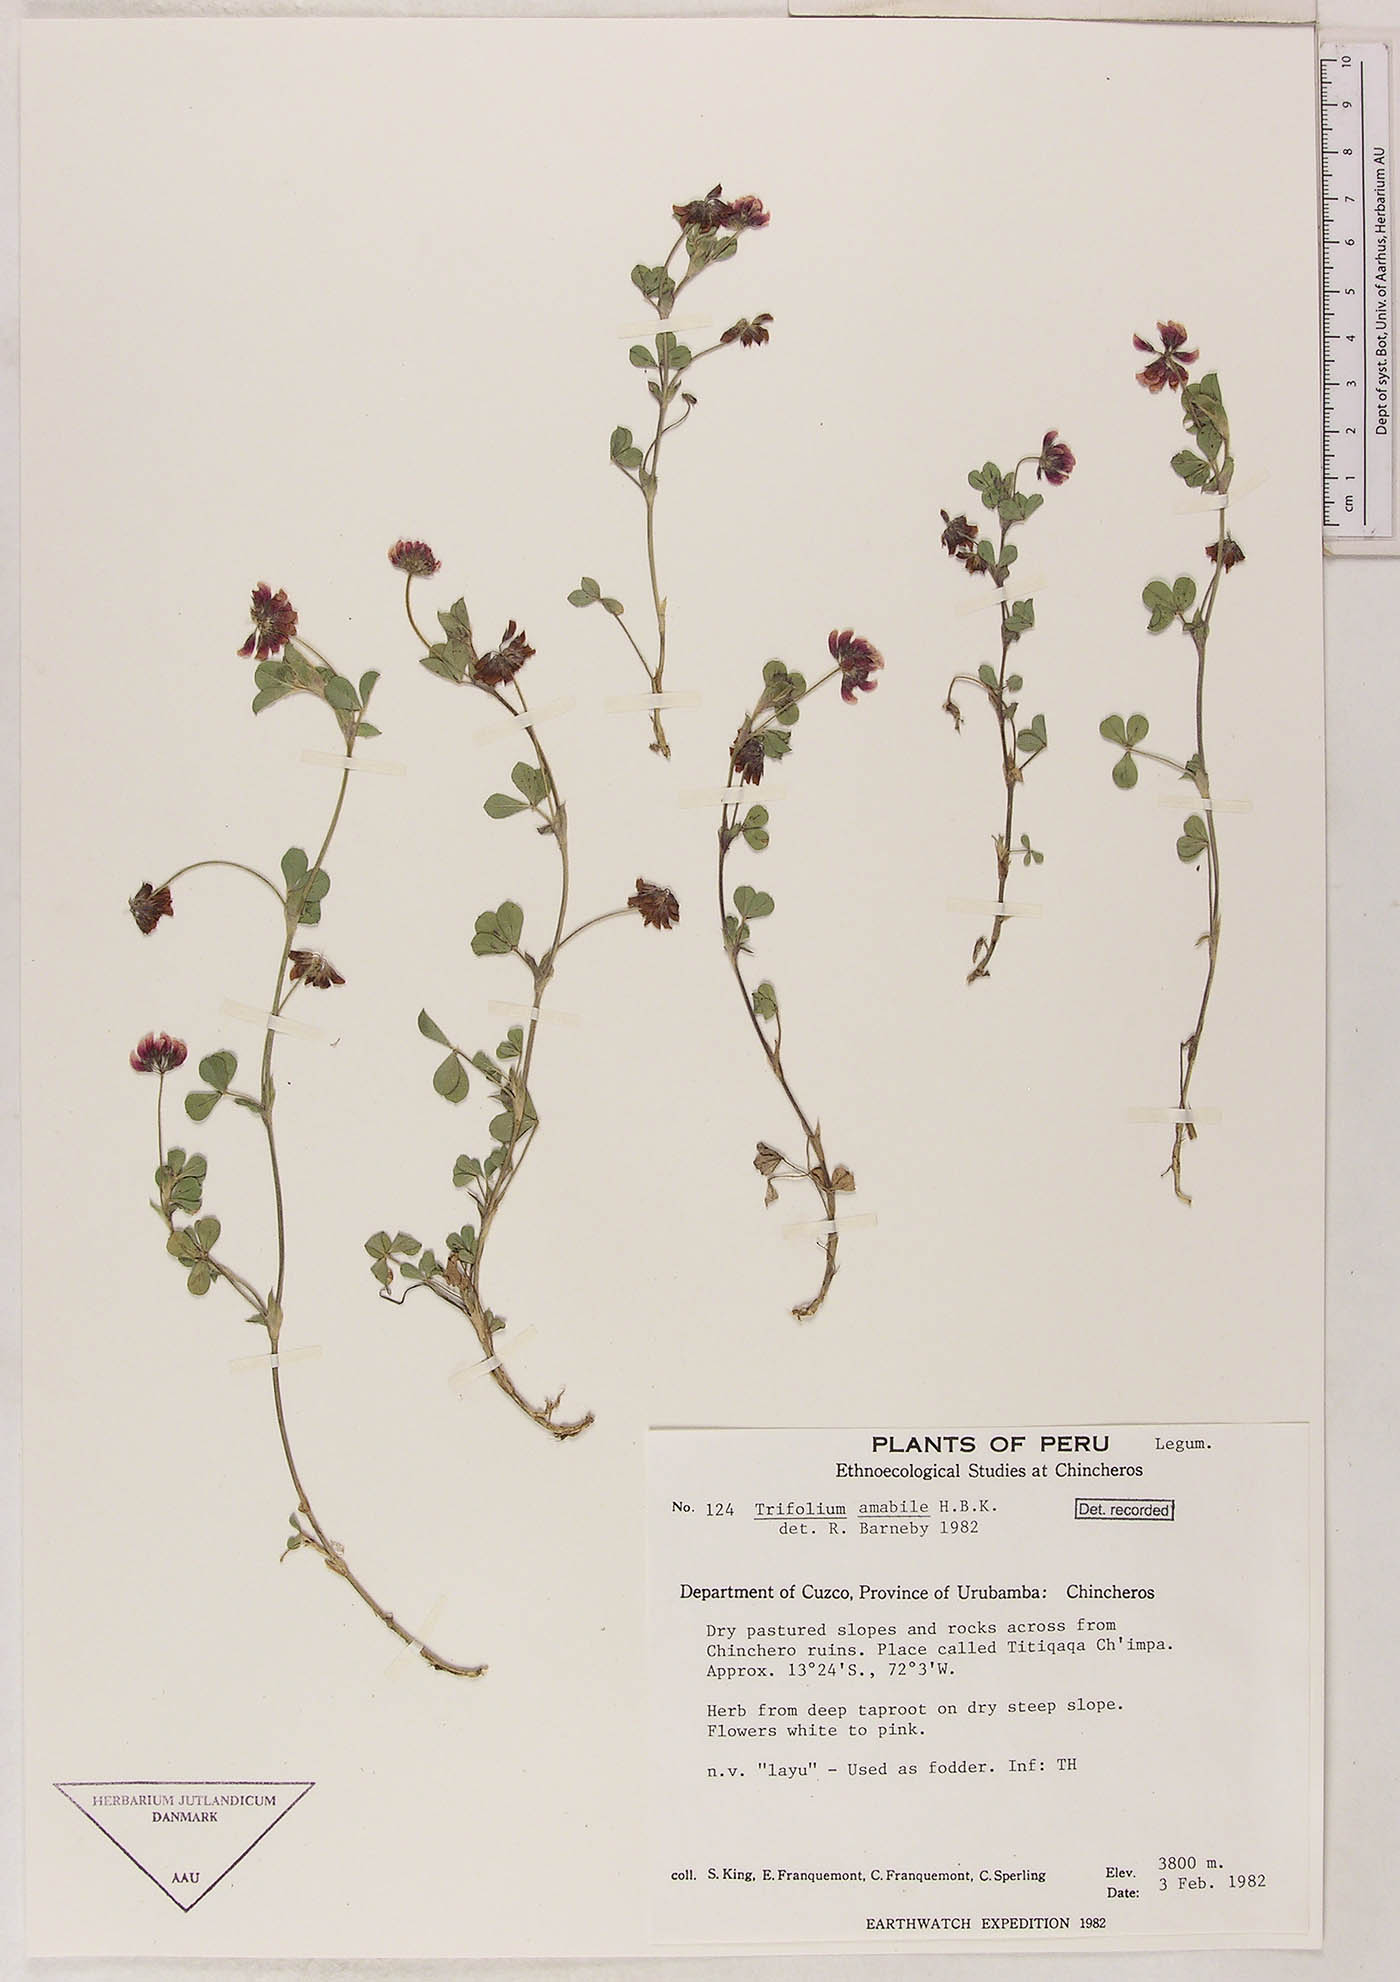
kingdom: Plantae
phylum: Tracheophyta
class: Magnoliopsida
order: Fabales
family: Fabaceae
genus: Trifolium
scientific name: Trifolium amabile
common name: Aztec clover
